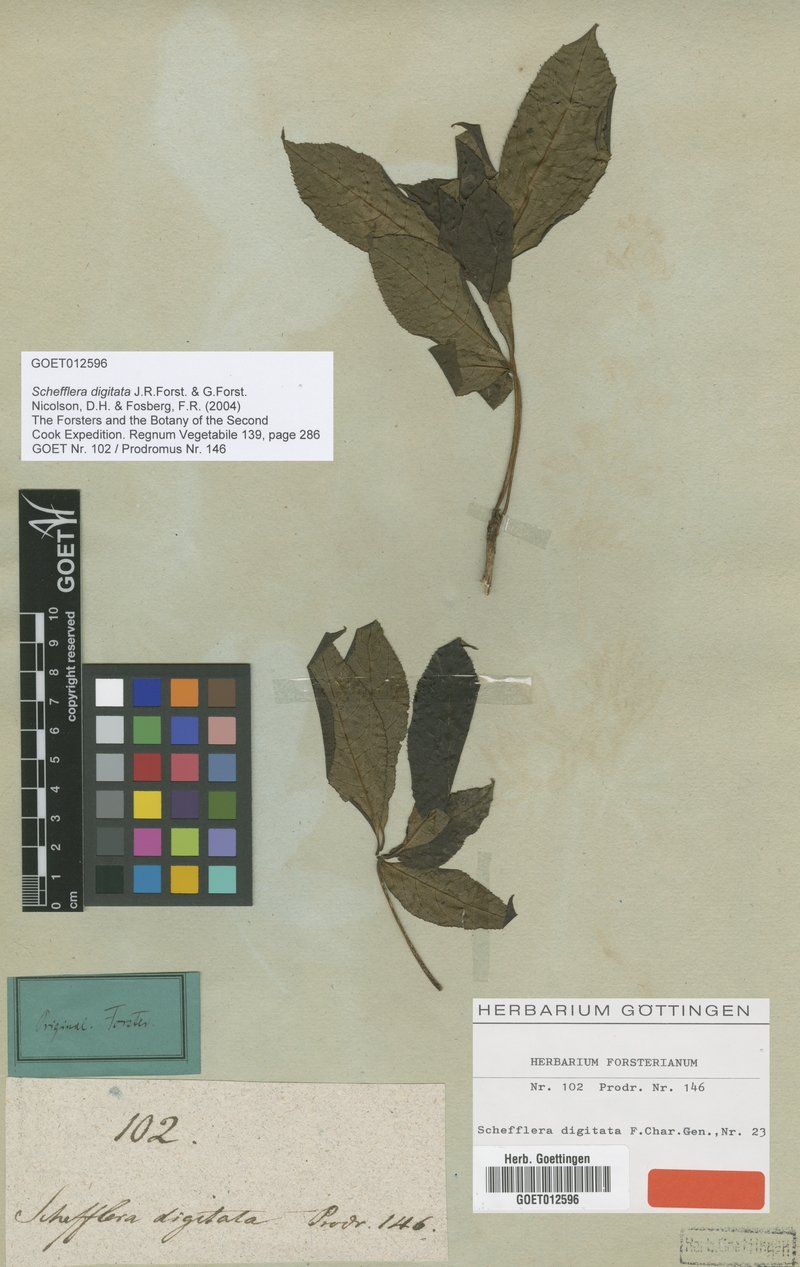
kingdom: Plantae
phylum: Tracheophyta
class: Magnoliopsida
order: Apiales
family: Araliaceae
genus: Schefflera
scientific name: Schefflera digitata
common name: Pate
